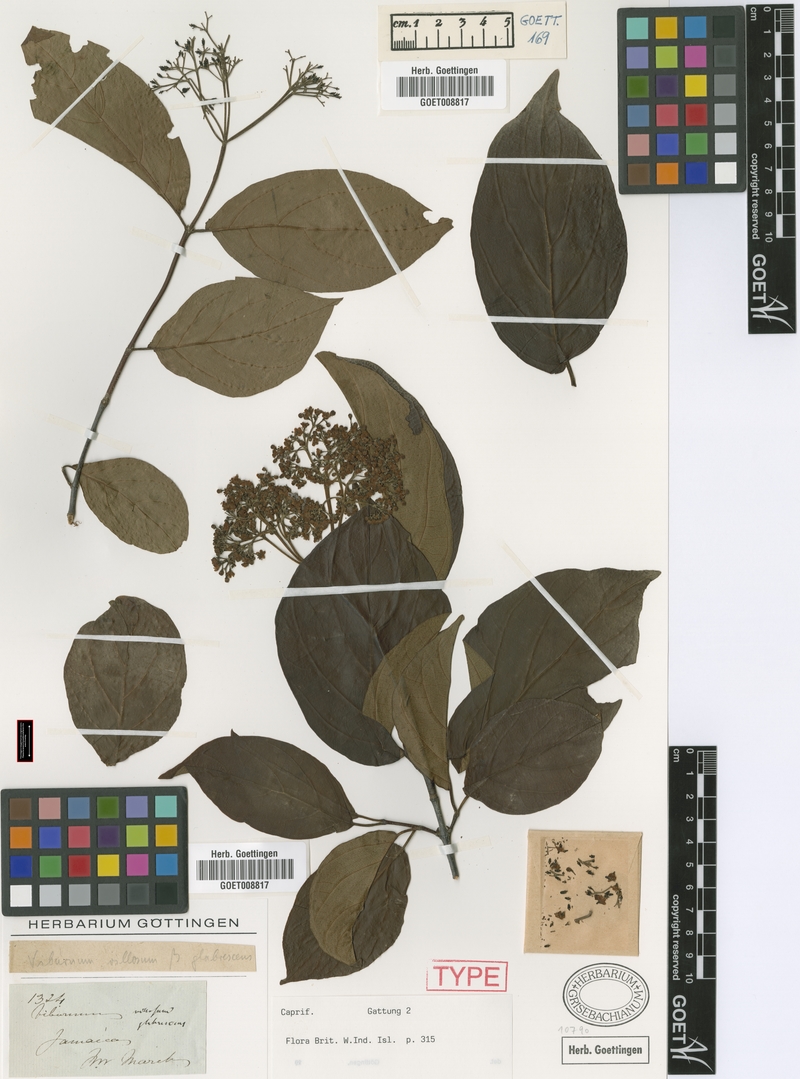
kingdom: Plantae
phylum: Tracheophyta
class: Magnoliopsida
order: Dipsacales
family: Viburnaceae
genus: Viburnum
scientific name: Viburnum villosum
